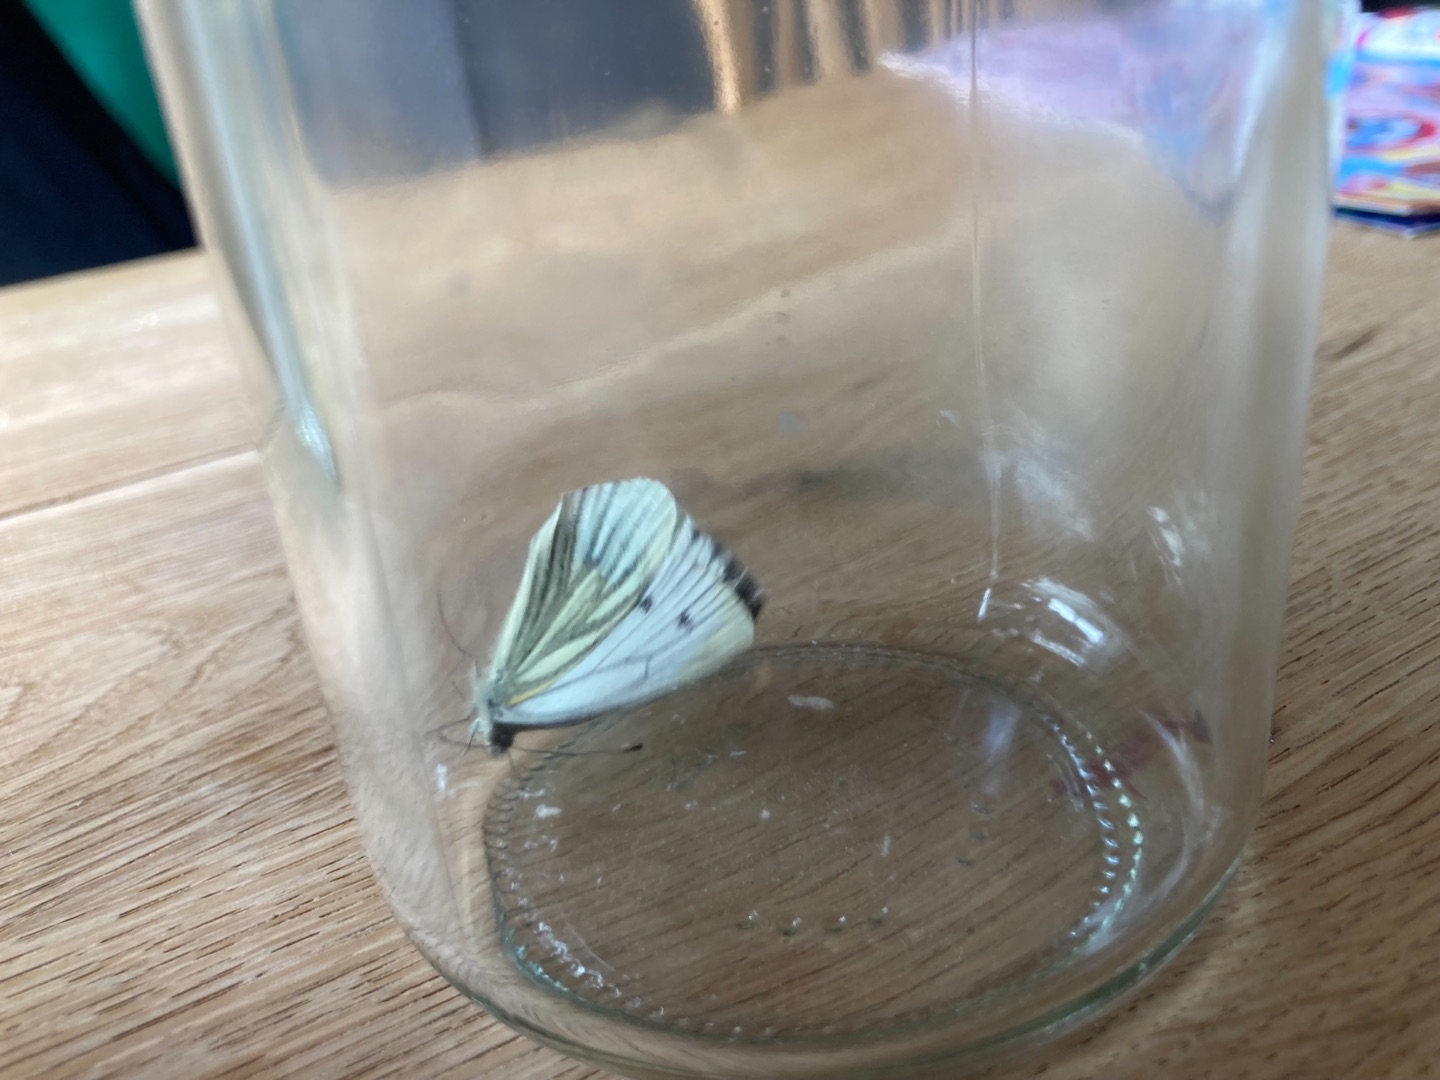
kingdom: Animalia
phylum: Arthropoda
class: Insecta
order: Lepidoptera
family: Pieridae
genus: Pieris
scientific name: Pieris napi
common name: Grønåret kålsommerfugl
